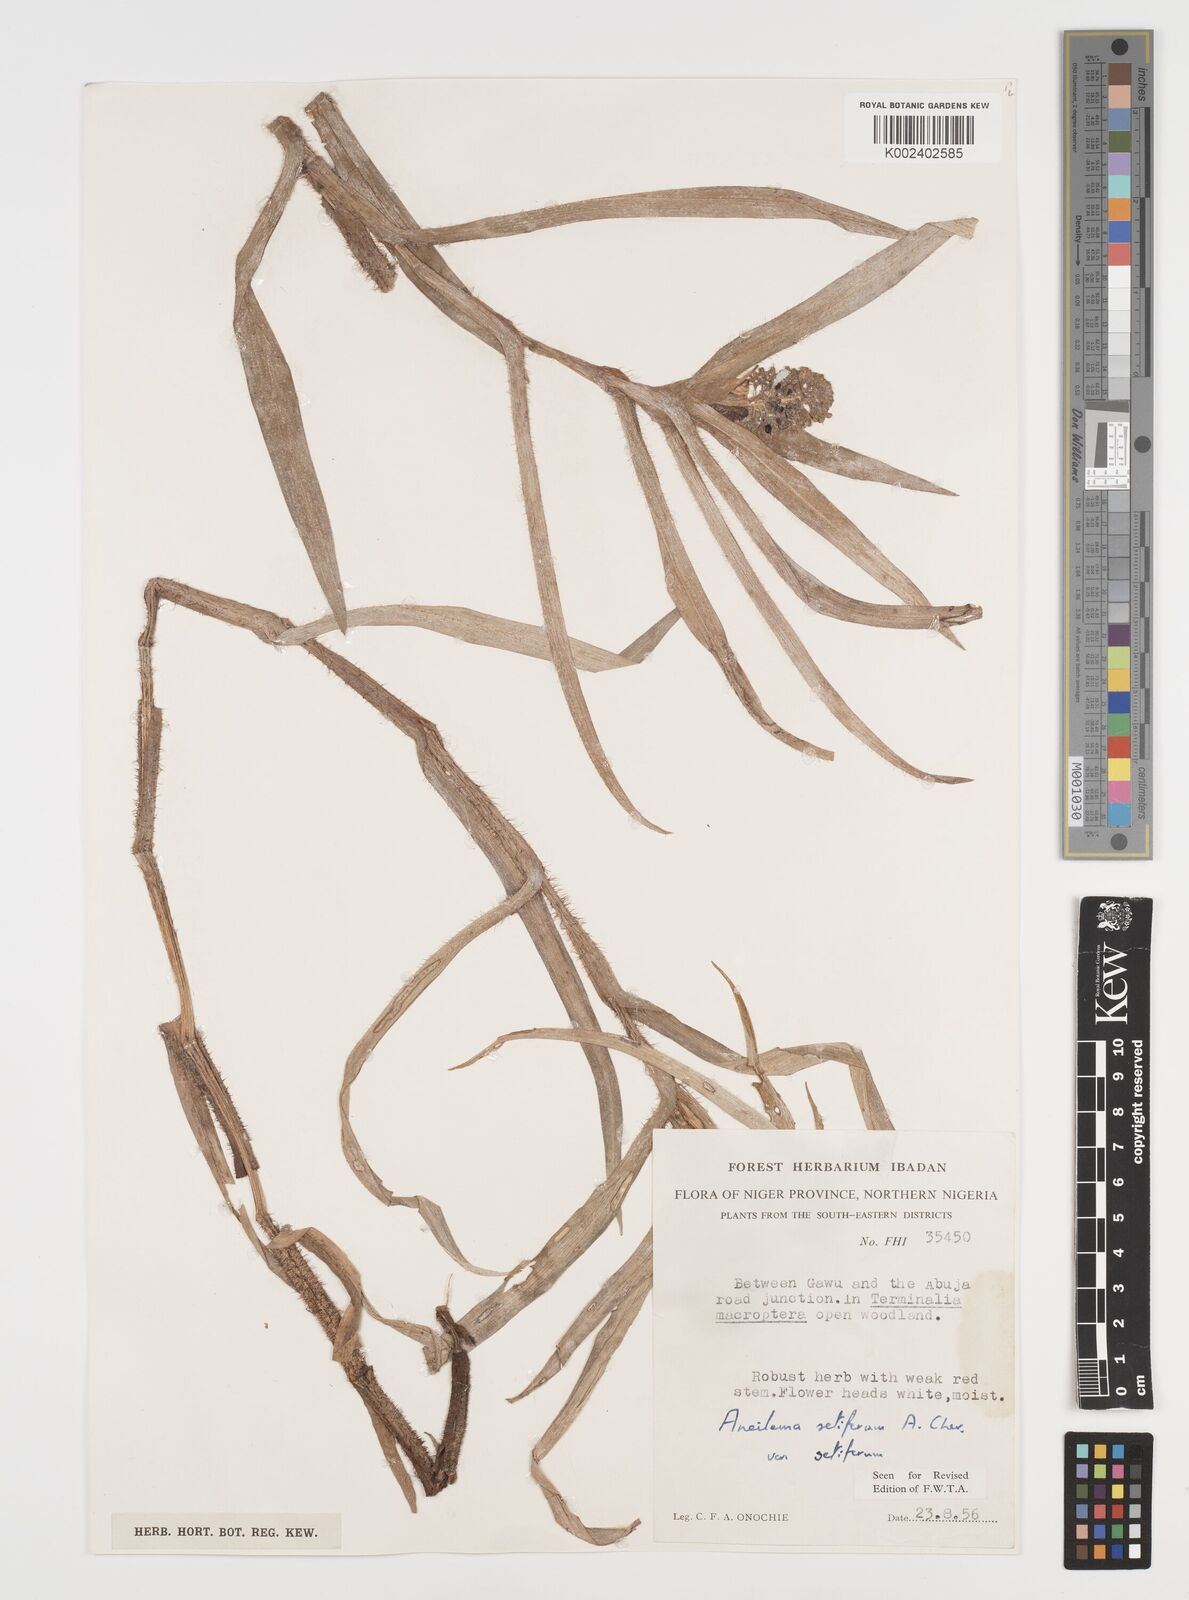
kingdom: Plantae
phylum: Tracheophyta
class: Liliopsida
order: Commelinales
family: Commelinaceae
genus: Aneilema
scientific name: Aneilema setiferum
